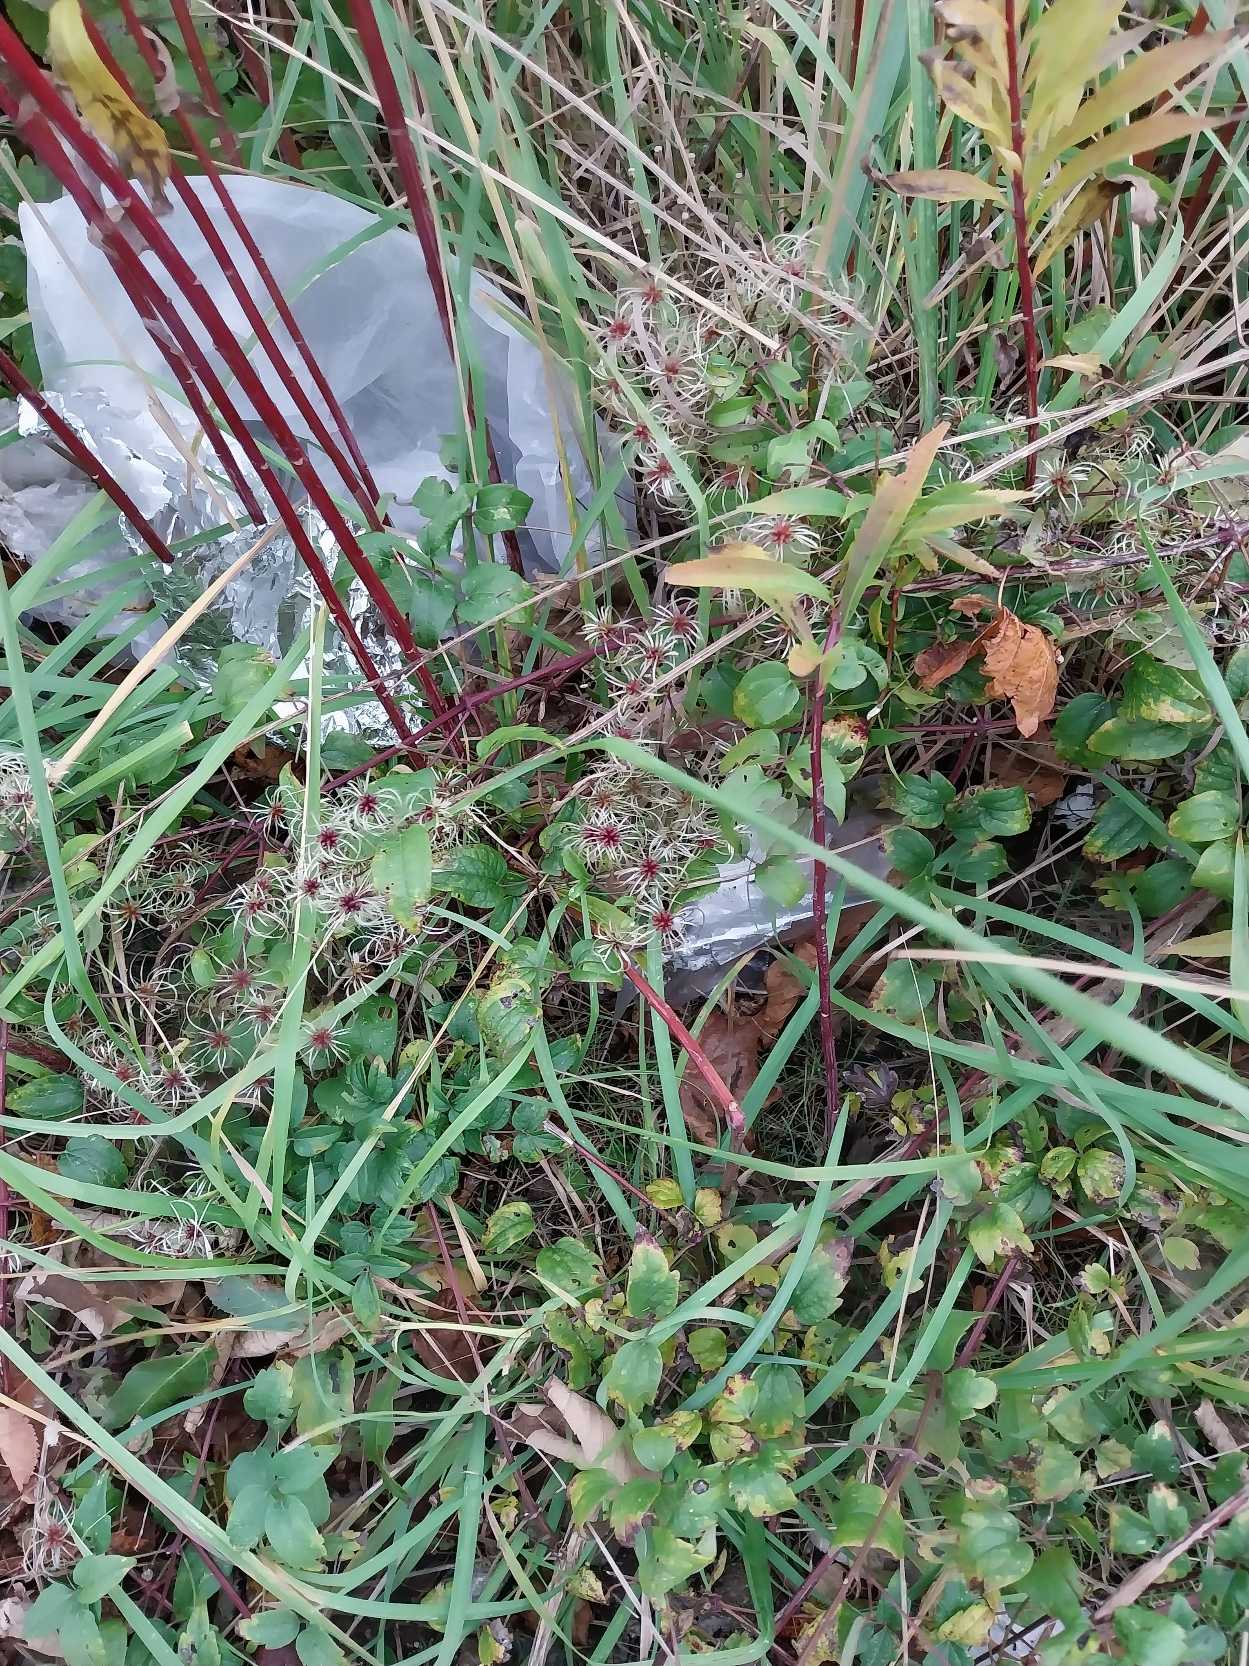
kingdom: Plantae
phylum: Tracheophyta
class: Magnoliopsida
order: Ranunculales
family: Ranunculaceae
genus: Clematis
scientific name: Clematis vitalba
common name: Skovranke
